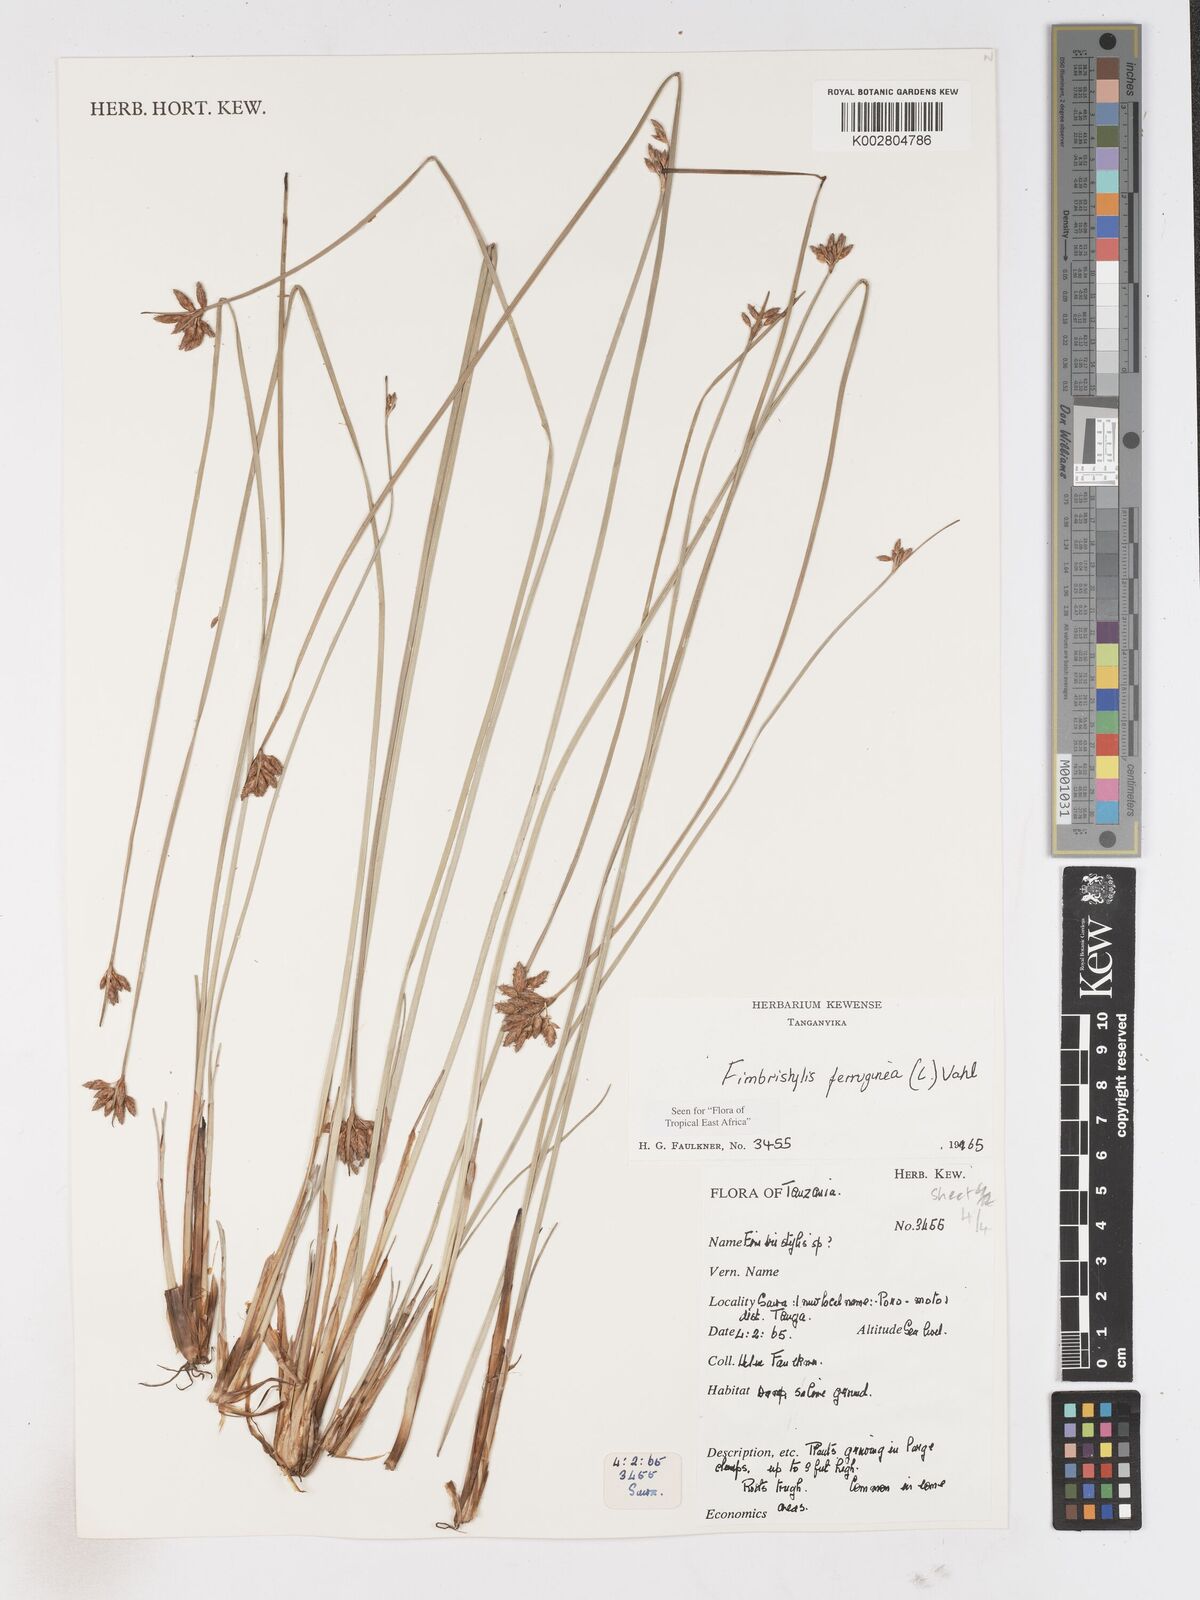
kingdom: Plantae
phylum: Tracheophyta
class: Liliopsida
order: Poales
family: Cyperaceae
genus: Fimbristylis
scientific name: Fimbristylis ferruginea
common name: West indian fimbry
